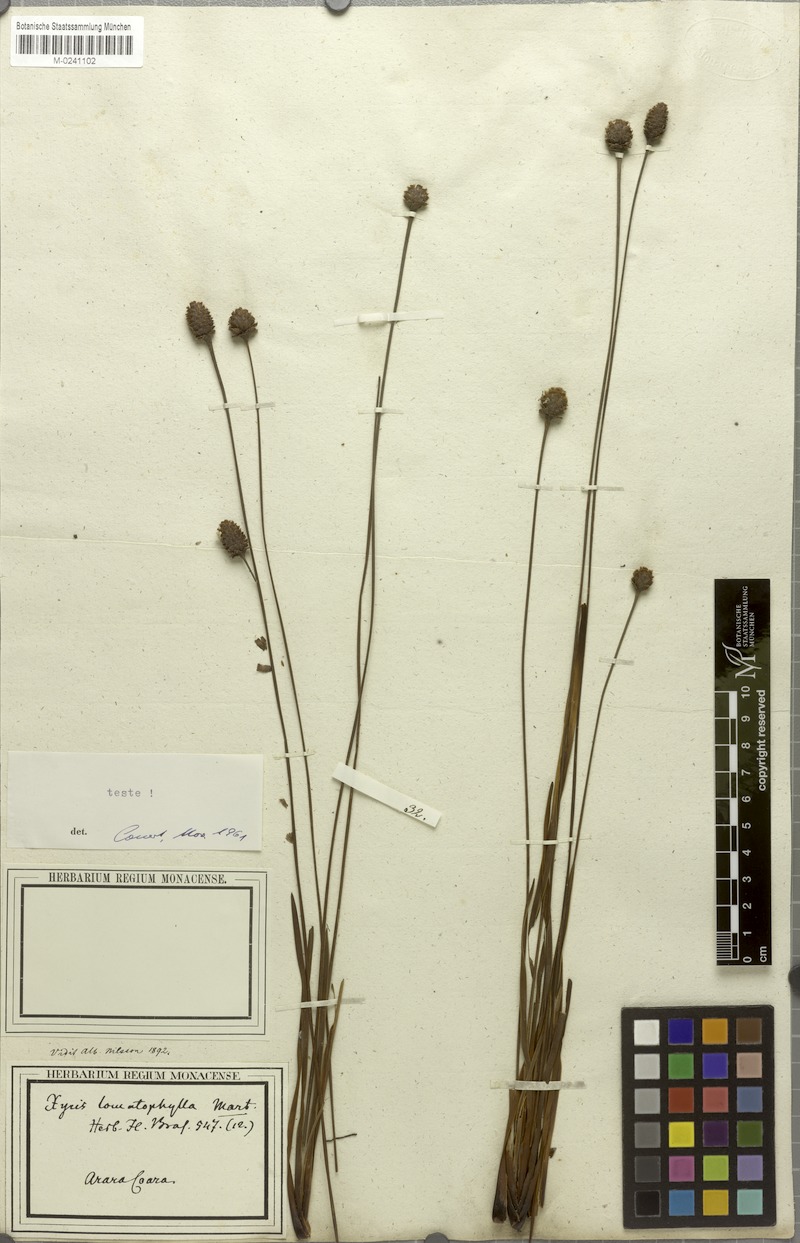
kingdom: Plantae
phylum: Tracheophyta
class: Liliopsida
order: Poales
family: Xyridaceae
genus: Xyris
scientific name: Xyris lomatophylla
